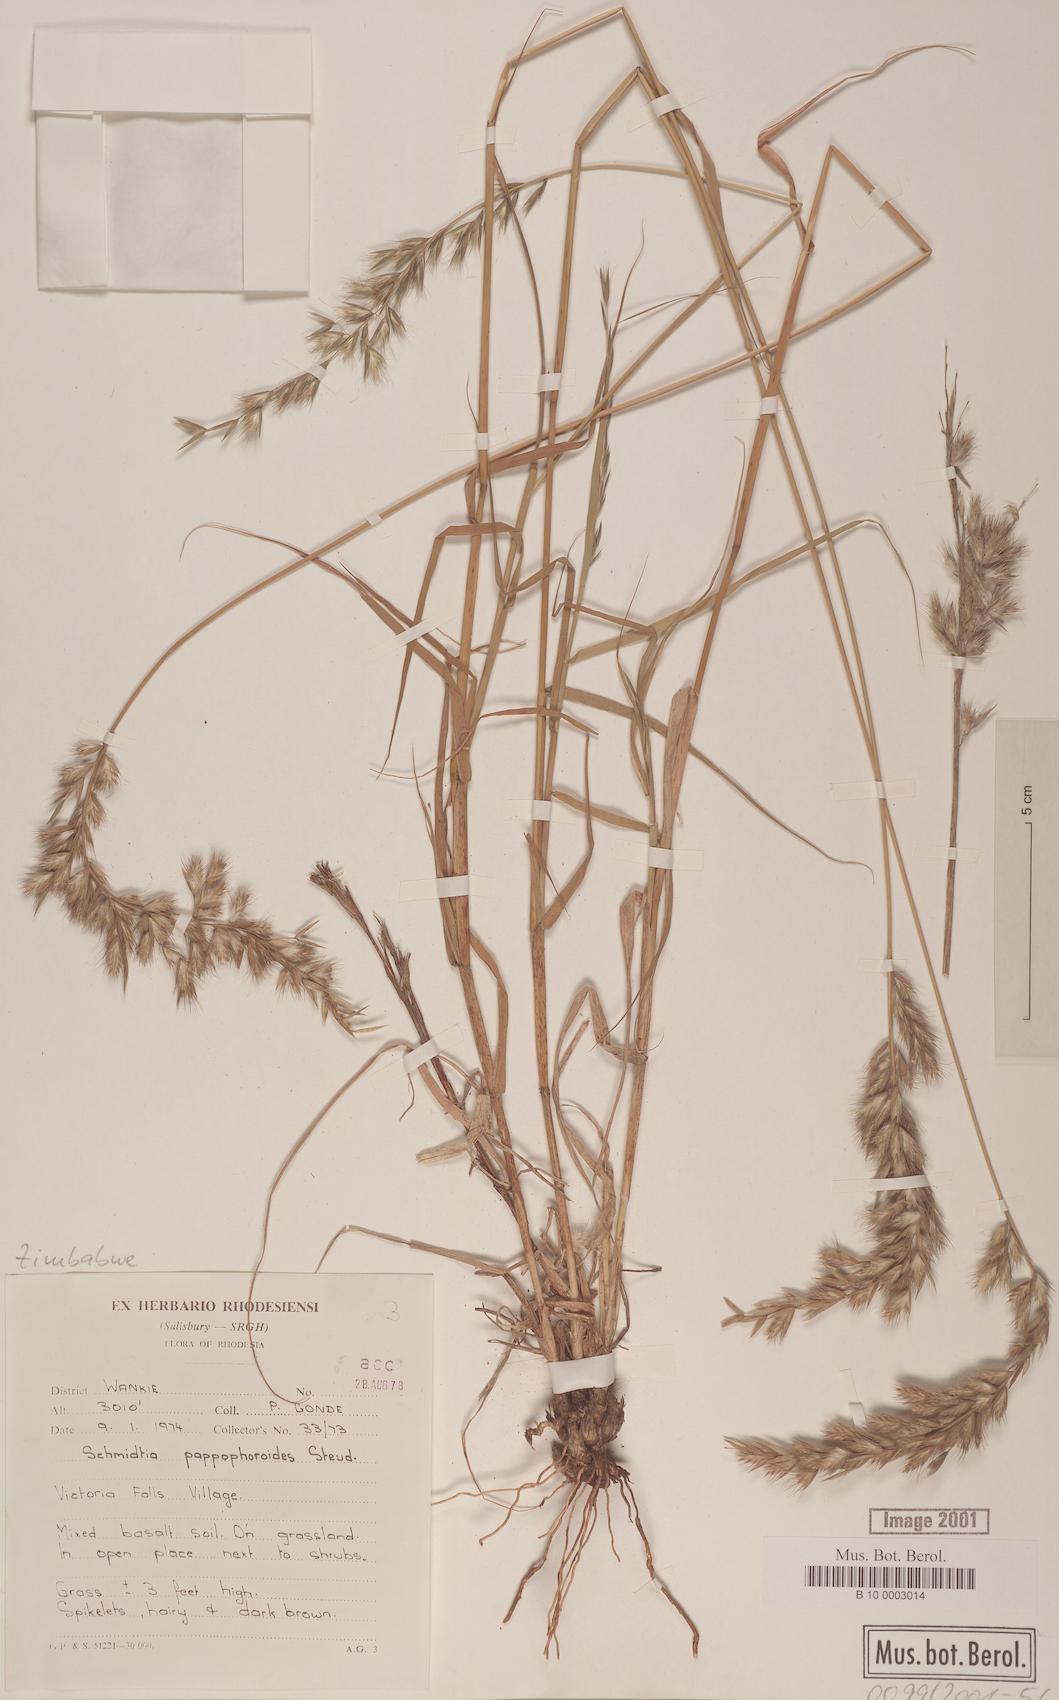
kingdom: Plantae
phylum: Tracheophyta
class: Liliopsida
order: Poales
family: Poaceae
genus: Schmidtia
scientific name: Schmidtia pappophoroides
